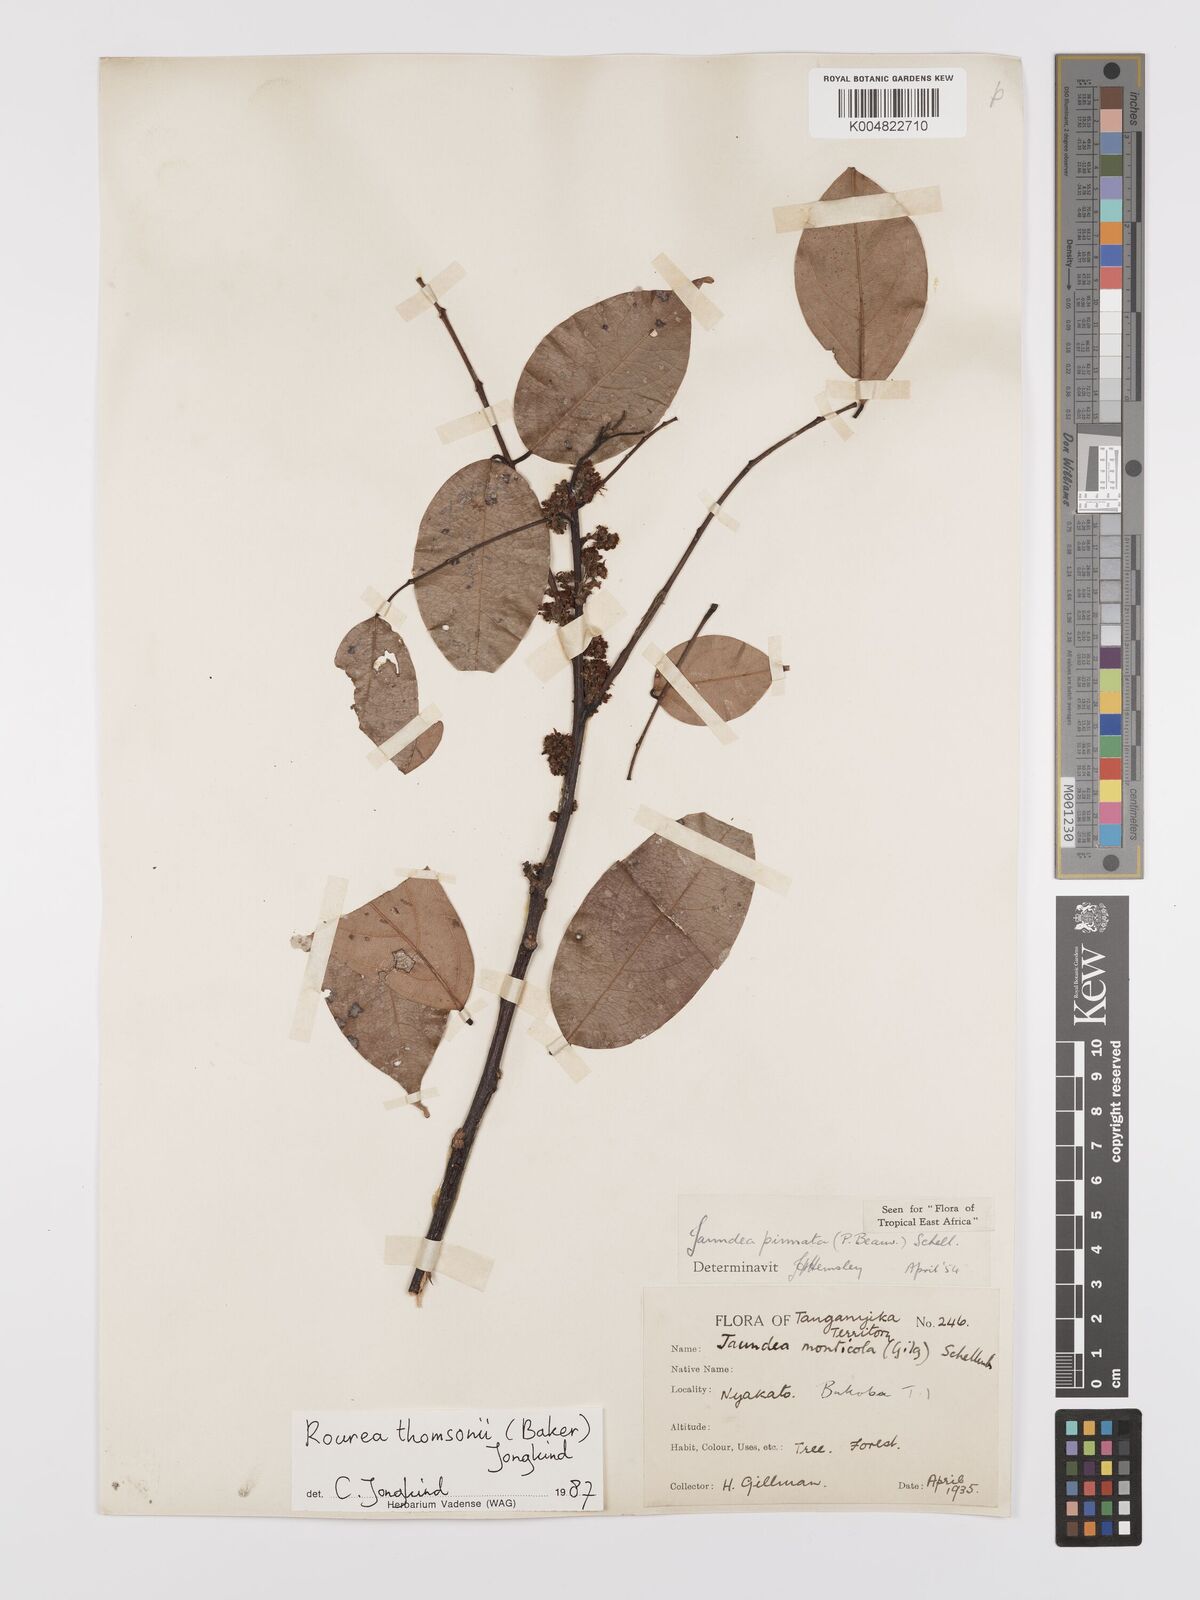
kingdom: Plantae
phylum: Tracheophyta
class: Magnoliopsida
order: Oxalidales
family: Connaraceae
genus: Rourea
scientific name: Rourea pinnata
